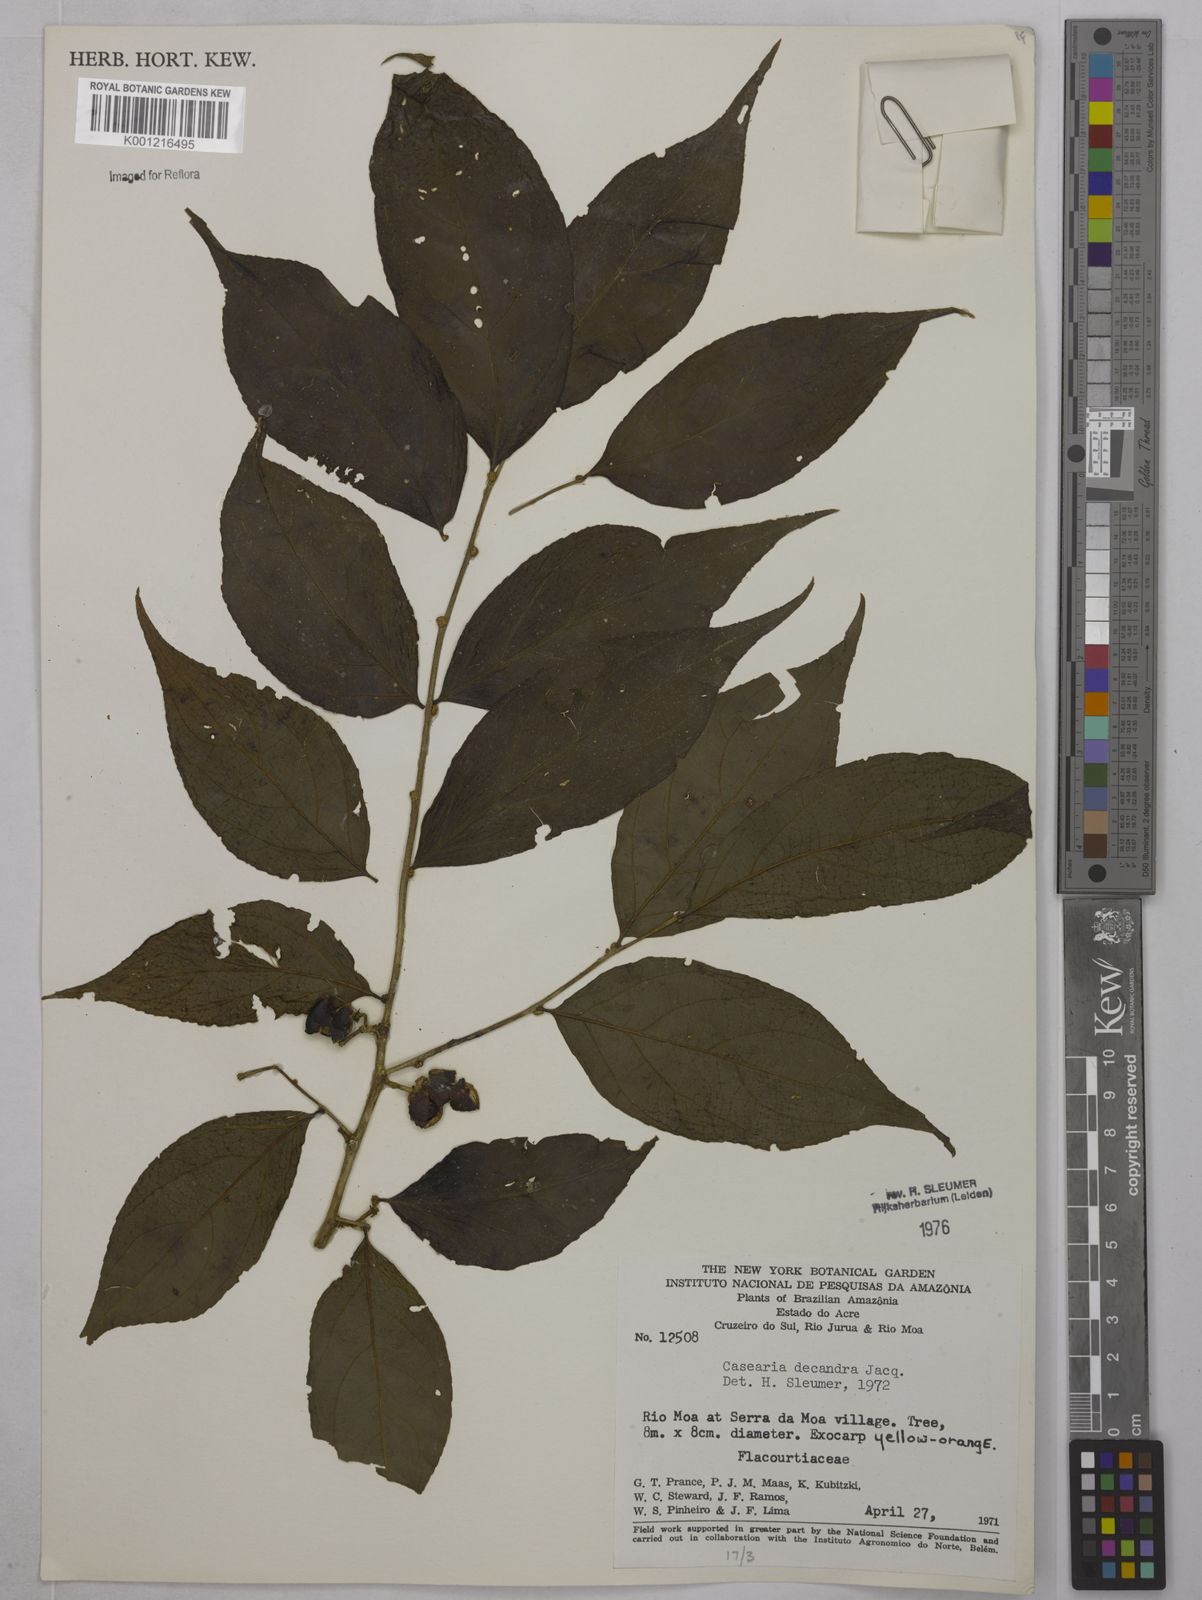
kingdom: Plantae
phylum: Tracheophyta
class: Magnoliopsida
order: Malpighiales
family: Salicaceae
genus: Casearia
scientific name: Casearia decandra
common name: Crack open
